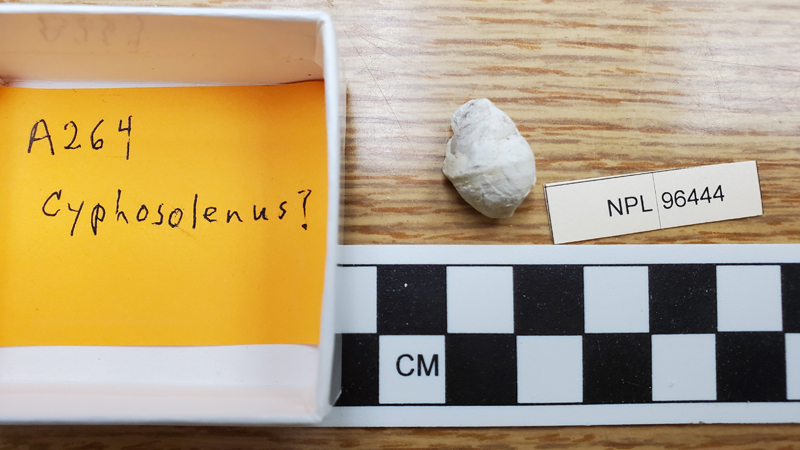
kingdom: Animalia
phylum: Mollusca
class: Gastropoda
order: Littorinimorpha
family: Aporrhaidae
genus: Cuphosolenus
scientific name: Cuphosolenus
